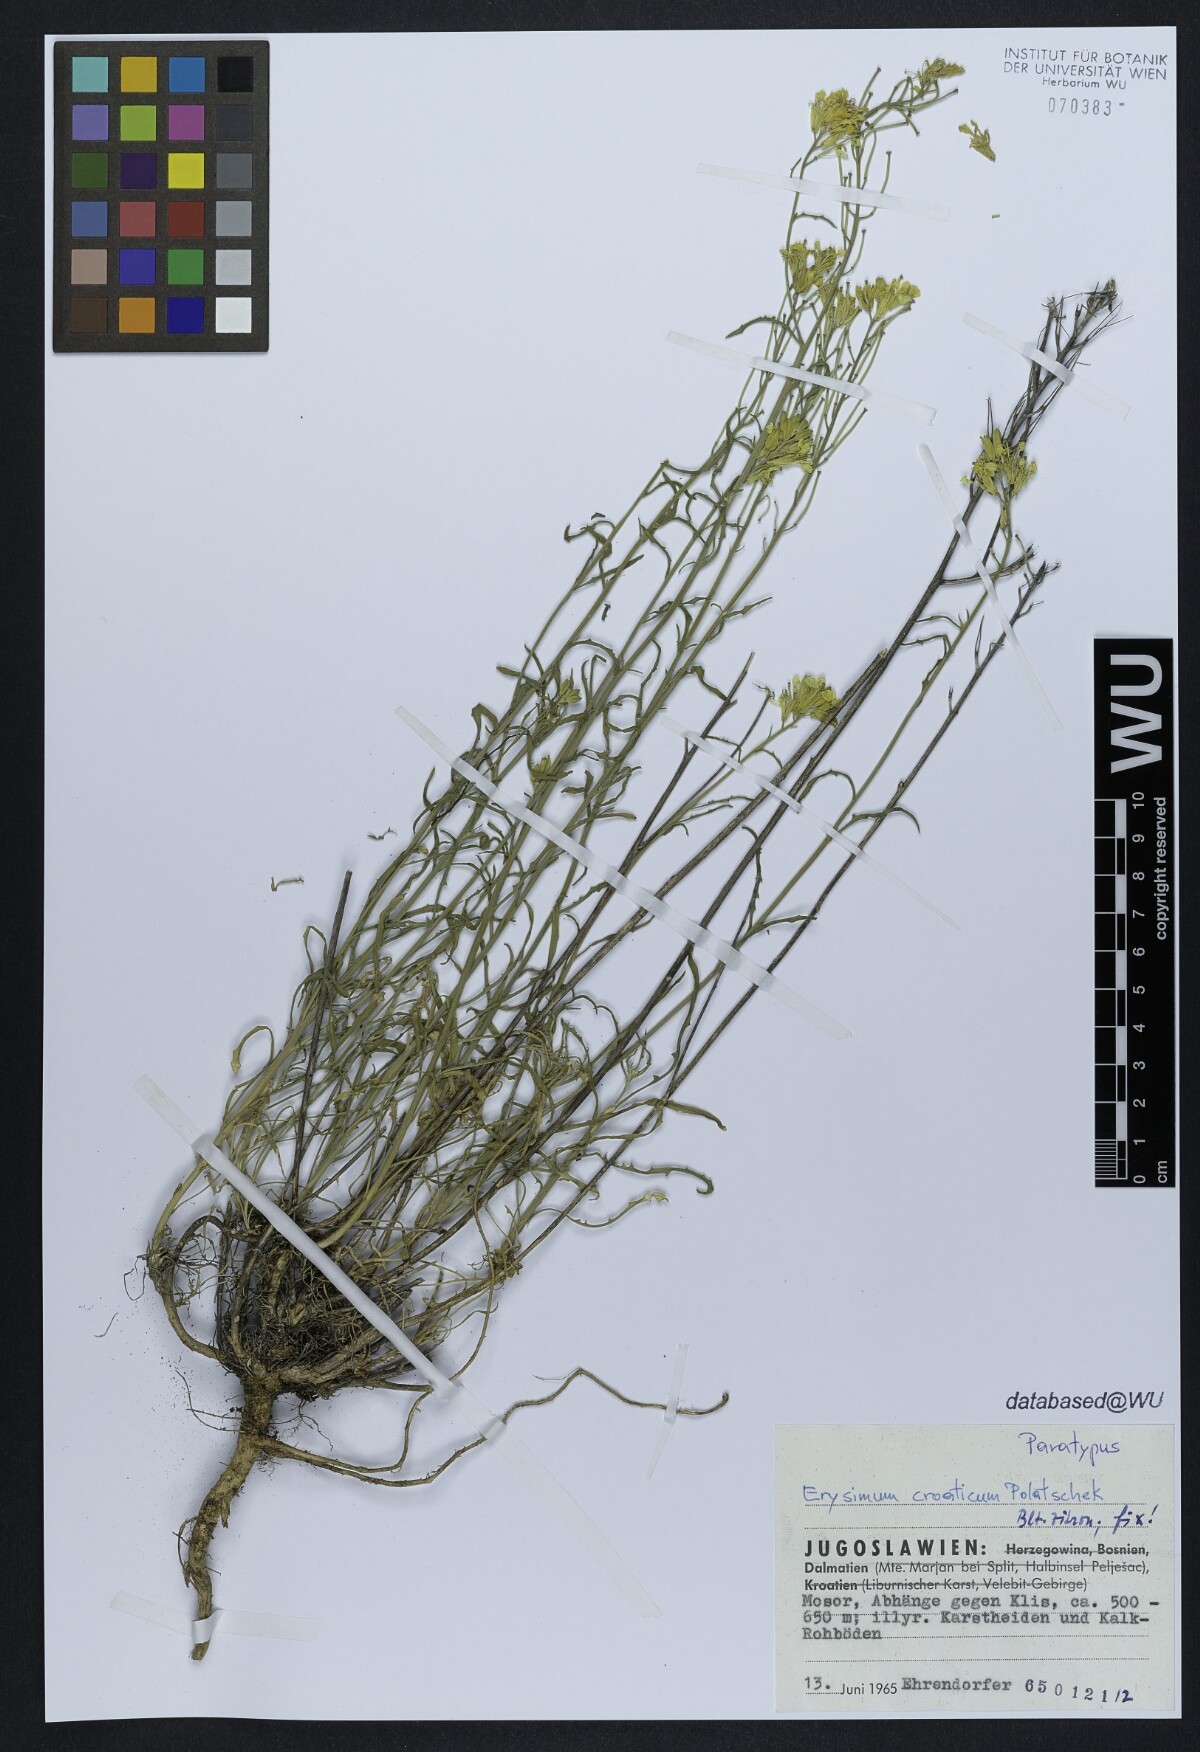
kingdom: Plantae
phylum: Tracheophyta
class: Magnoliopsida
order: Brassicales
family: Brassicaceae
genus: Erysimum
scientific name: Erysimum croaticum
